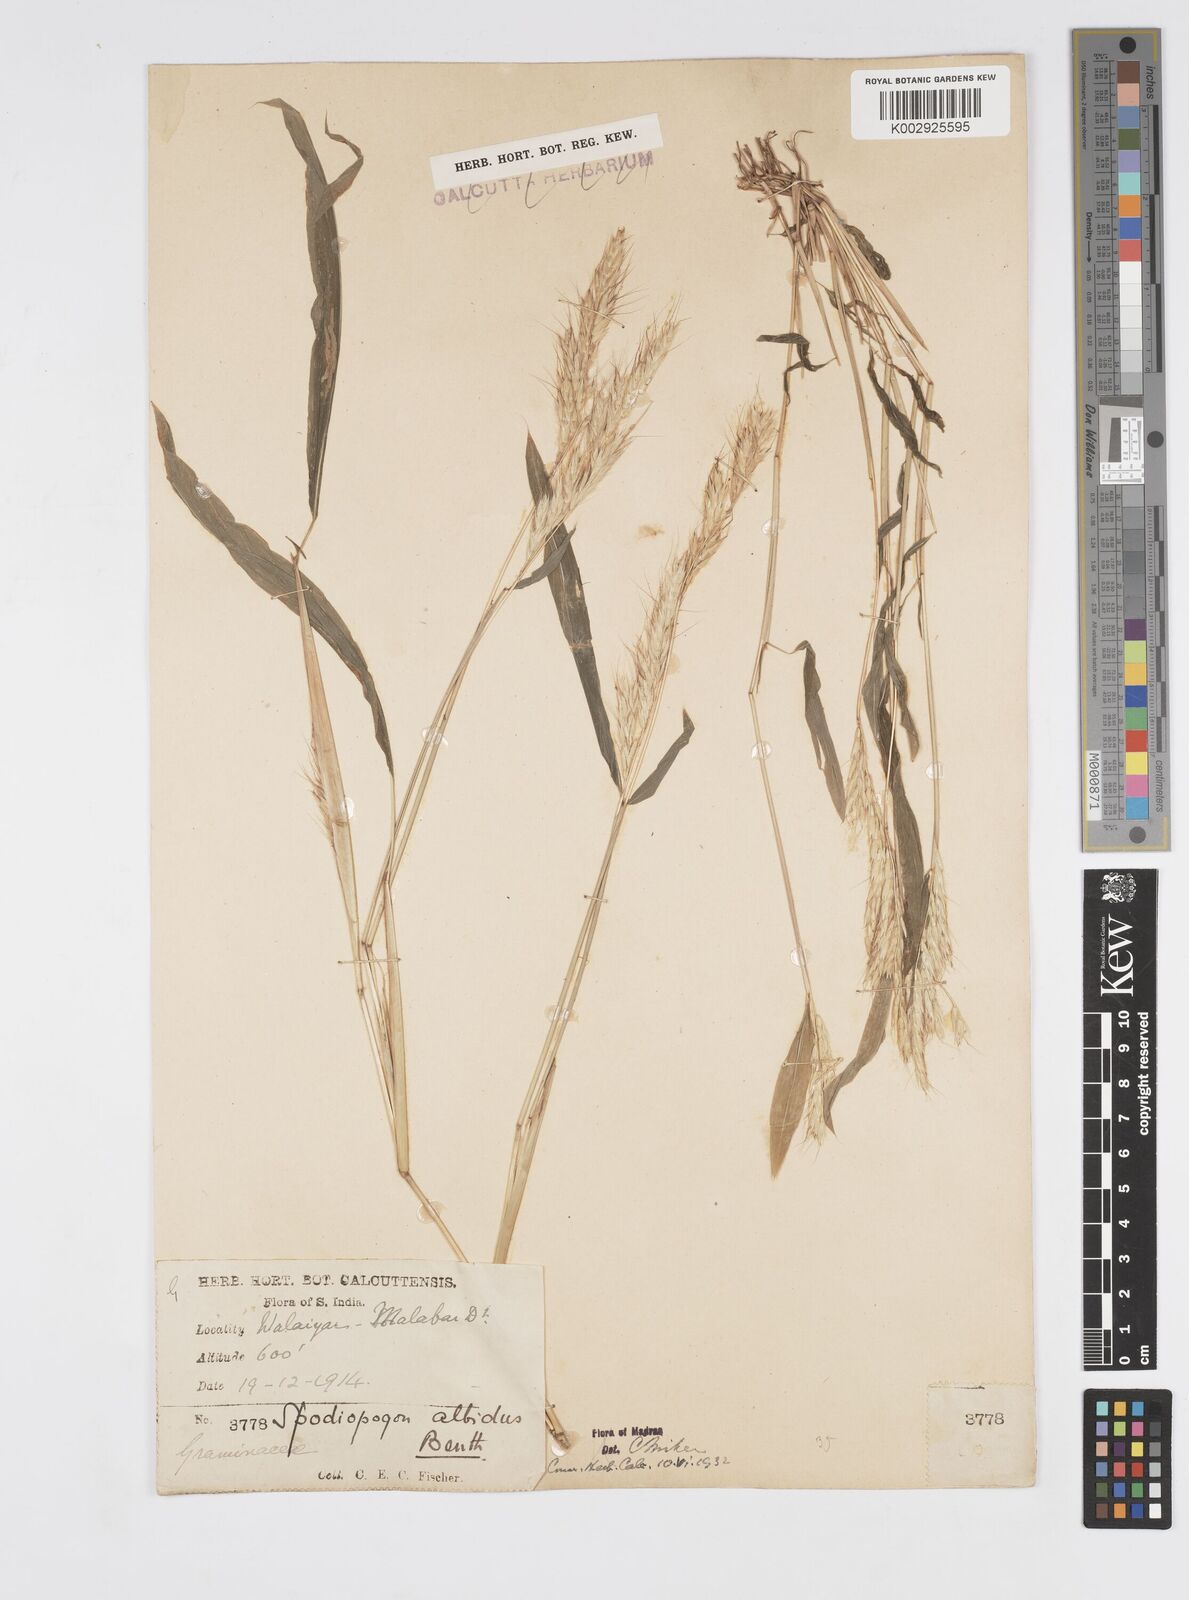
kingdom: Plantae
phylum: Tracheophyta
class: Liliopsida
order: Poales
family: Poaceae
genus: Spodiopogon
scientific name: Spodiopogon rhizophorus
